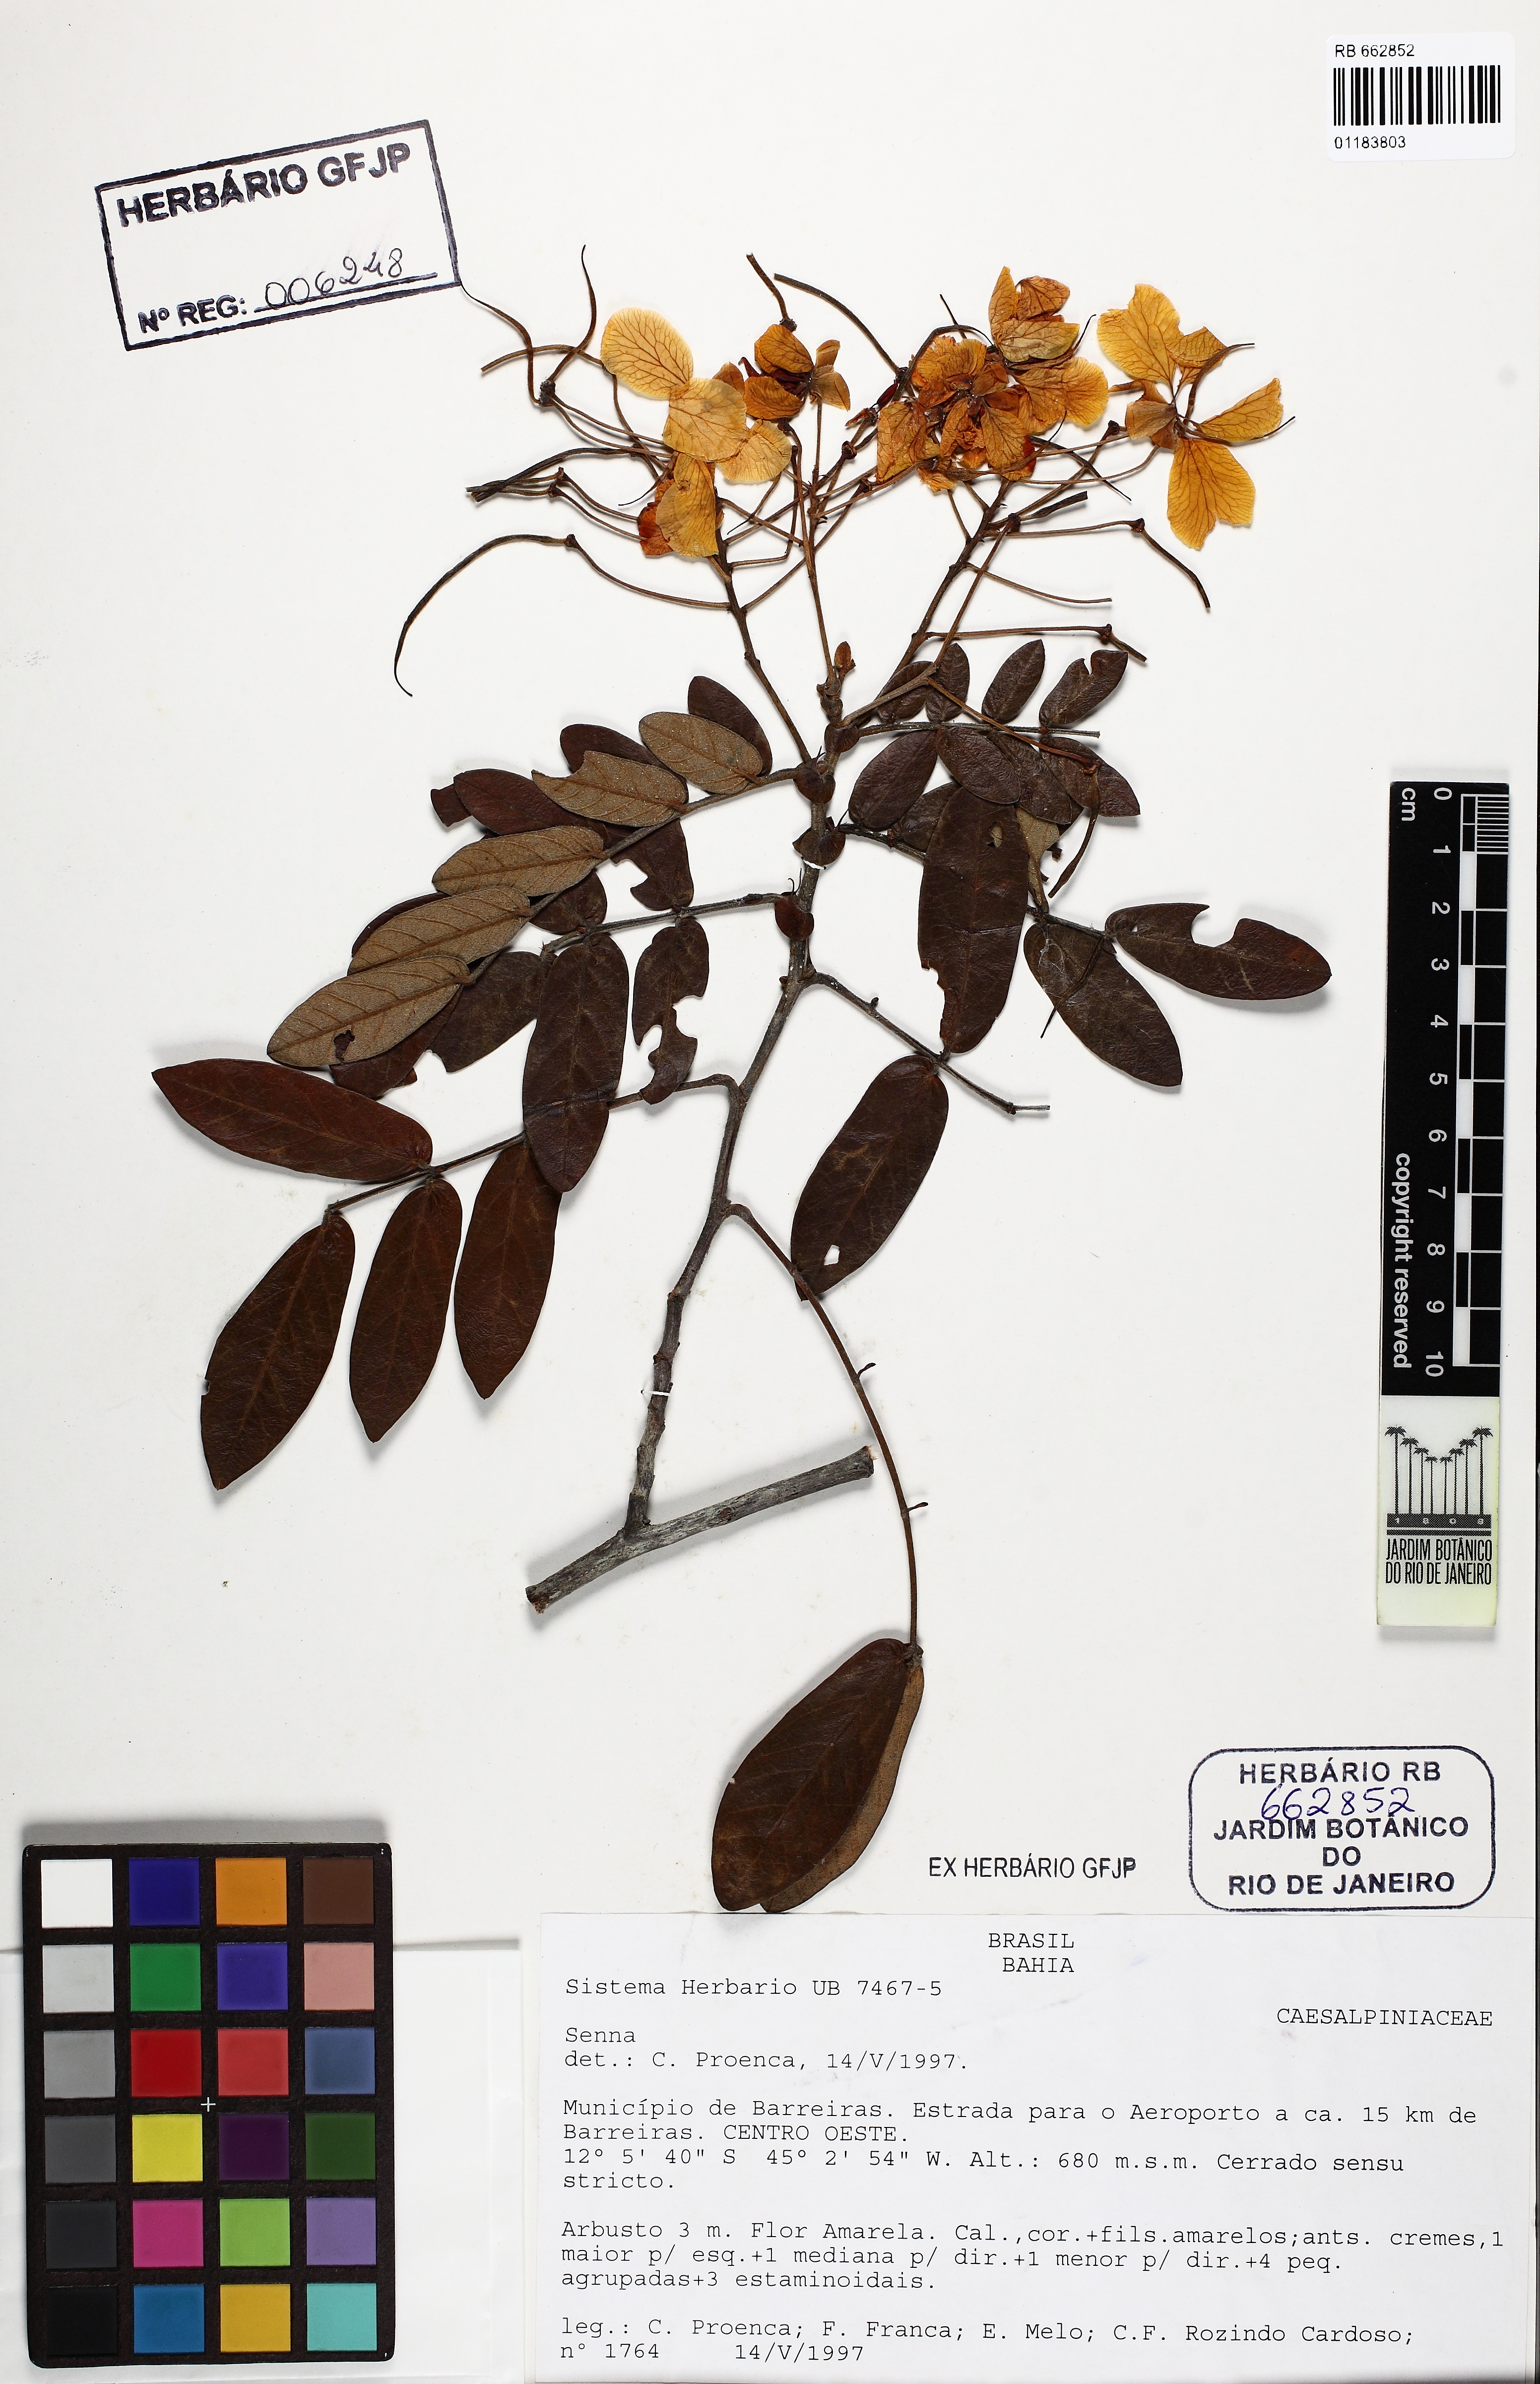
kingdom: Plantae
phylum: Tracheophyta
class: Magnoliopsida
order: Fabales
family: Fabaceae
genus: Senna
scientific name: Senna
